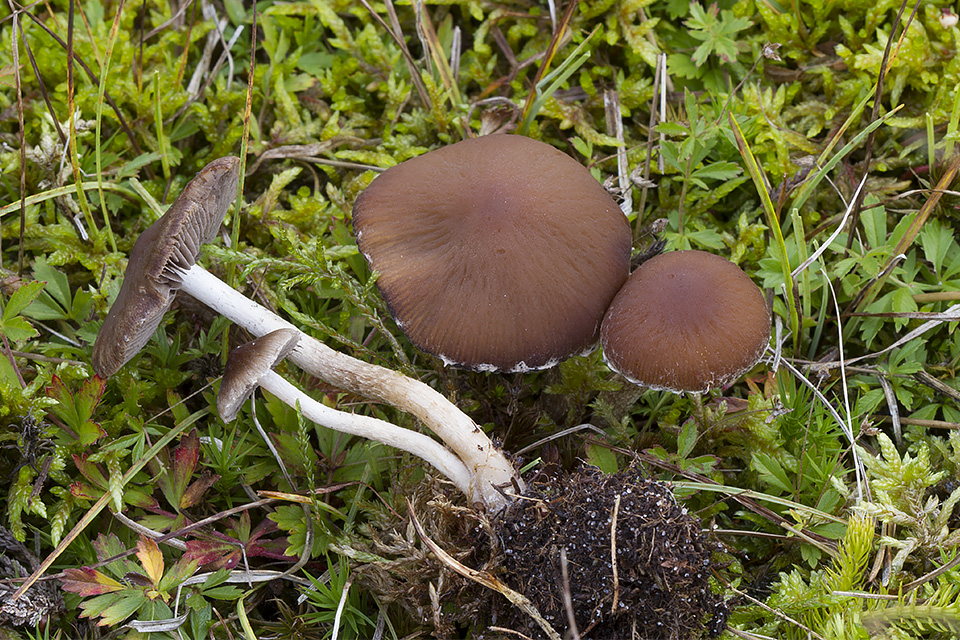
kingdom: Fungi
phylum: Basidiomycota
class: Agaricomycetes
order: Agaricales
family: Psathyrellaceae
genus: Psathyrella
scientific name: Psathyrella impexa
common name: rødmende mørkhat
